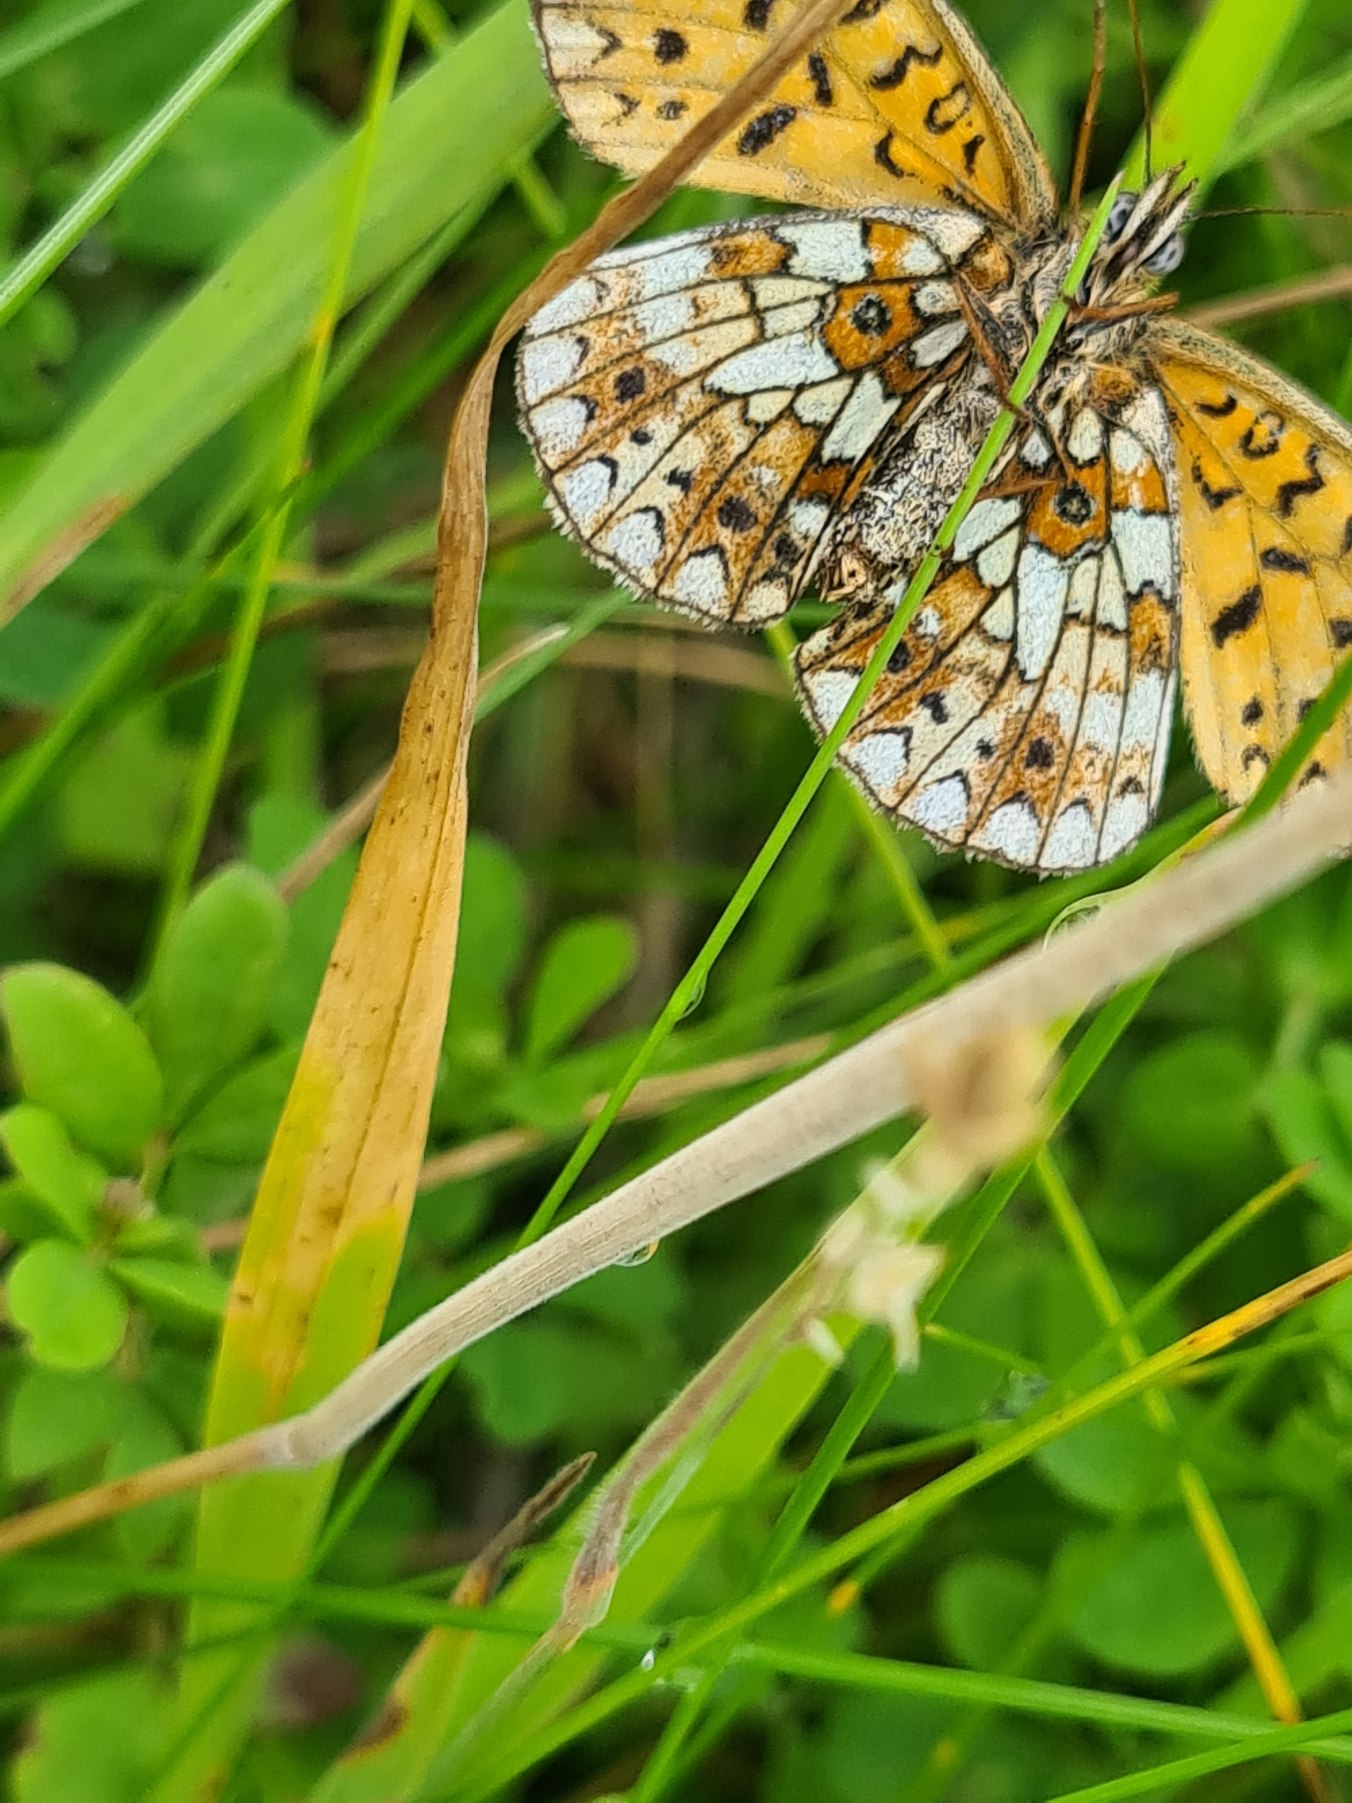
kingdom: Animalia
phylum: Arthropoda
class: Insecta
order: Lepidoptera
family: Nymphalidae
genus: Boloria
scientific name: Boloria selene
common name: Brunlig perlemorsommerfugl
